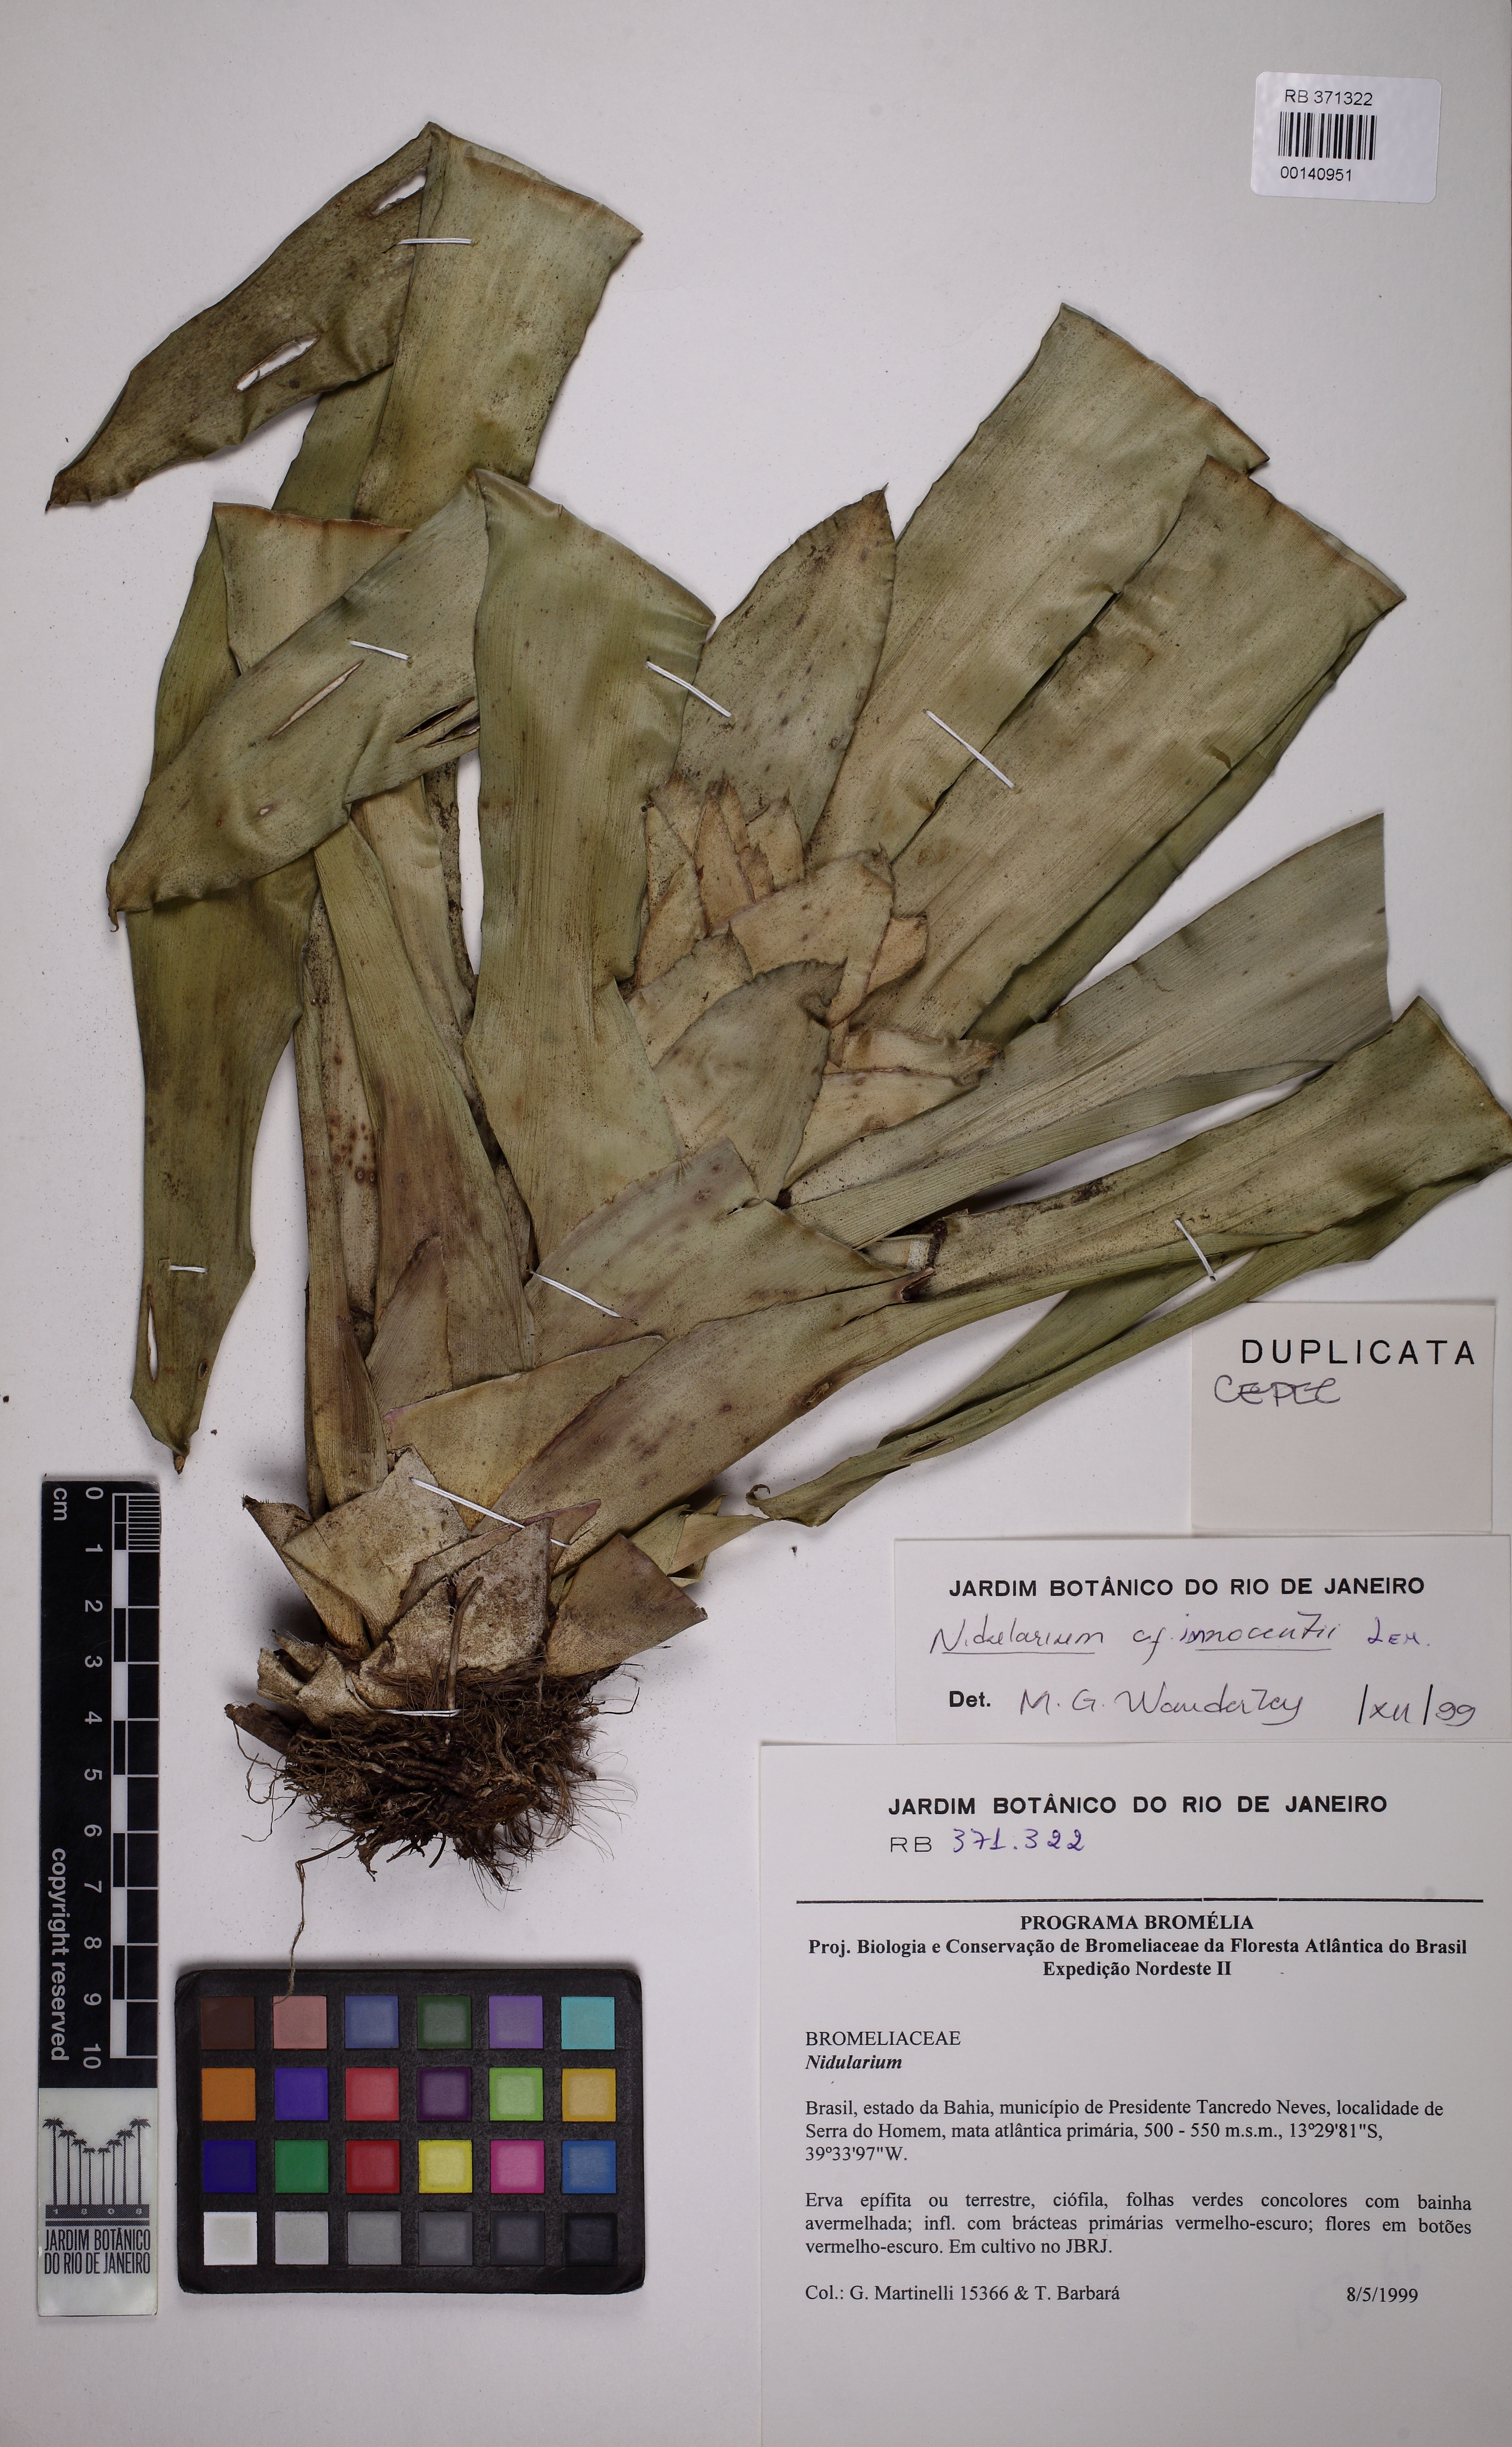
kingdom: Plantae
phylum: Tracheophyta
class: Liliopsida
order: Poales
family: Bromeliaceae
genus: Nidularium
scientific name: Nidularium innocentii
